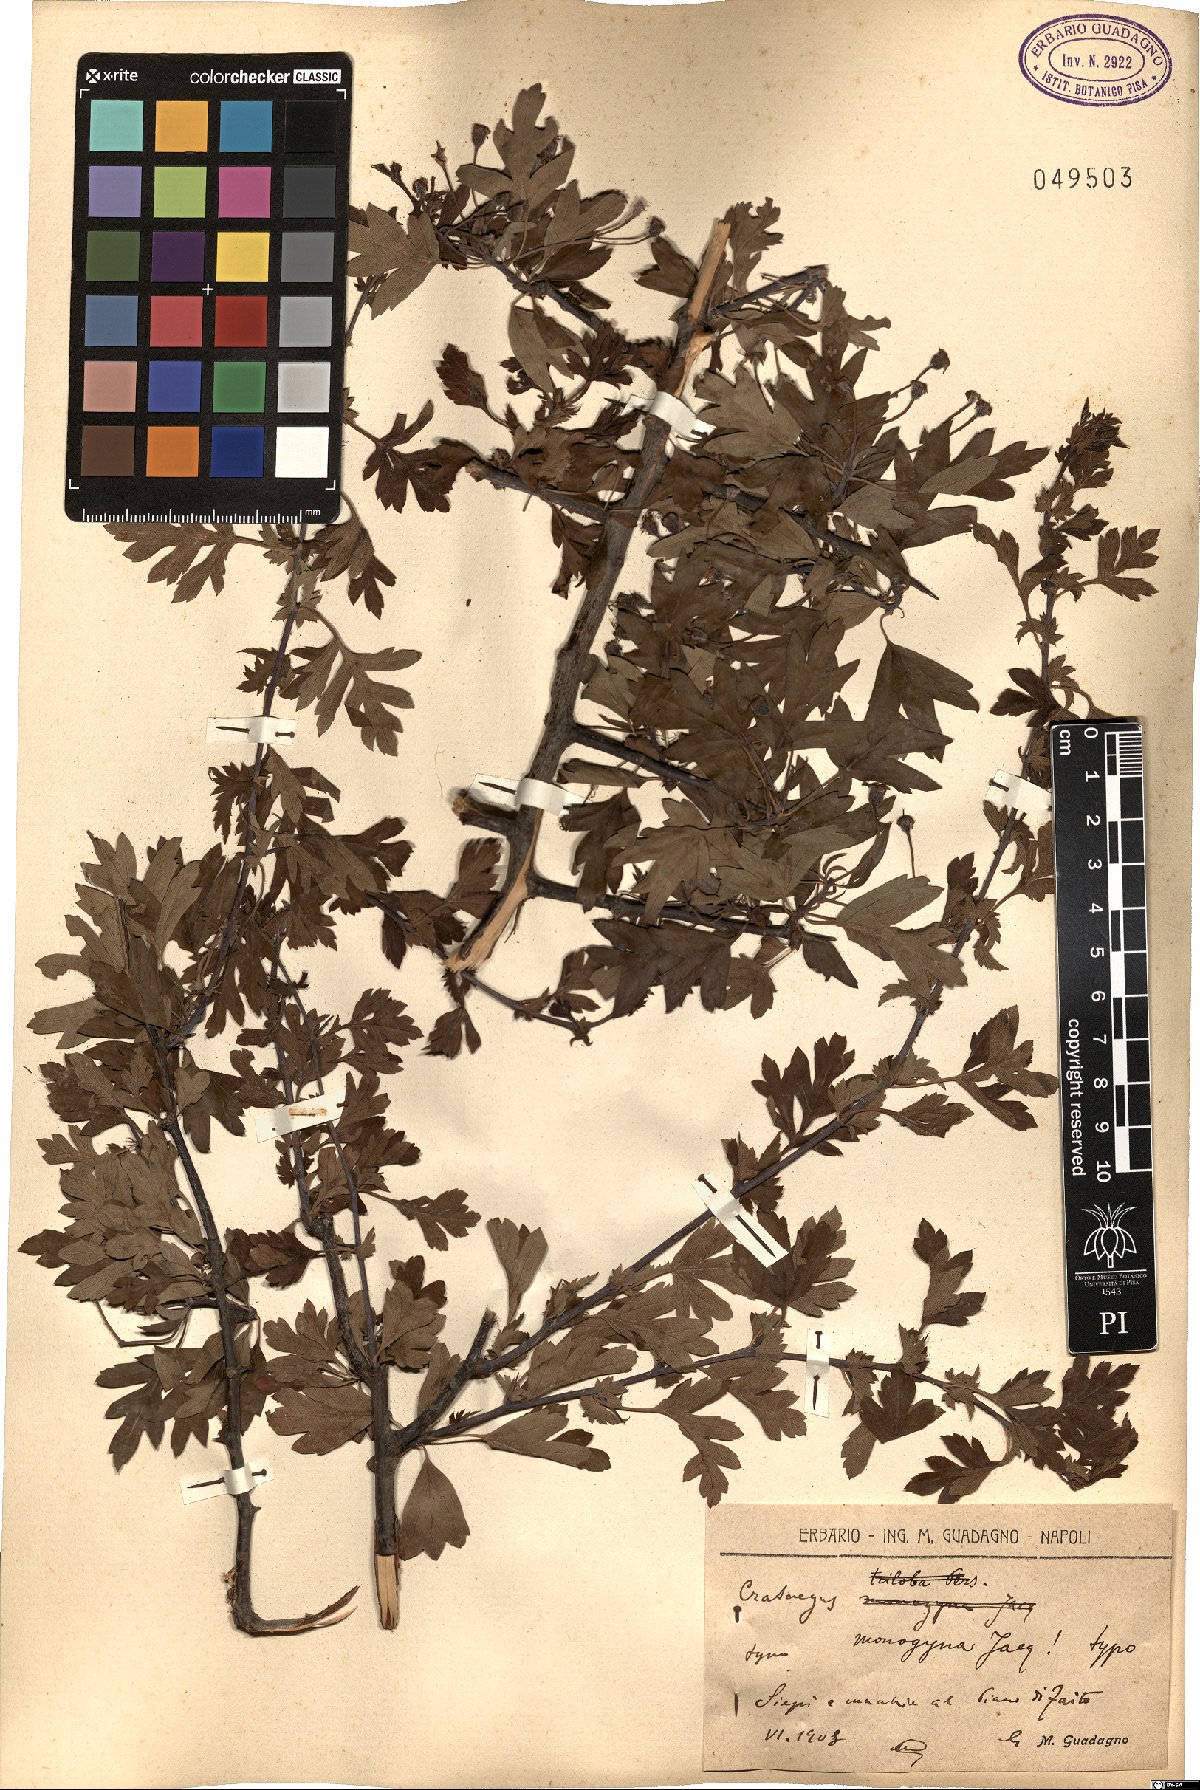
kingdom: Plantae
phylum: Tracheophyta
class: Magnoliopsida
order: Rosales
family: Rosaceae
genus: Crataegus
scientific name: Crataegus monogyna
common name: Hawthorn
